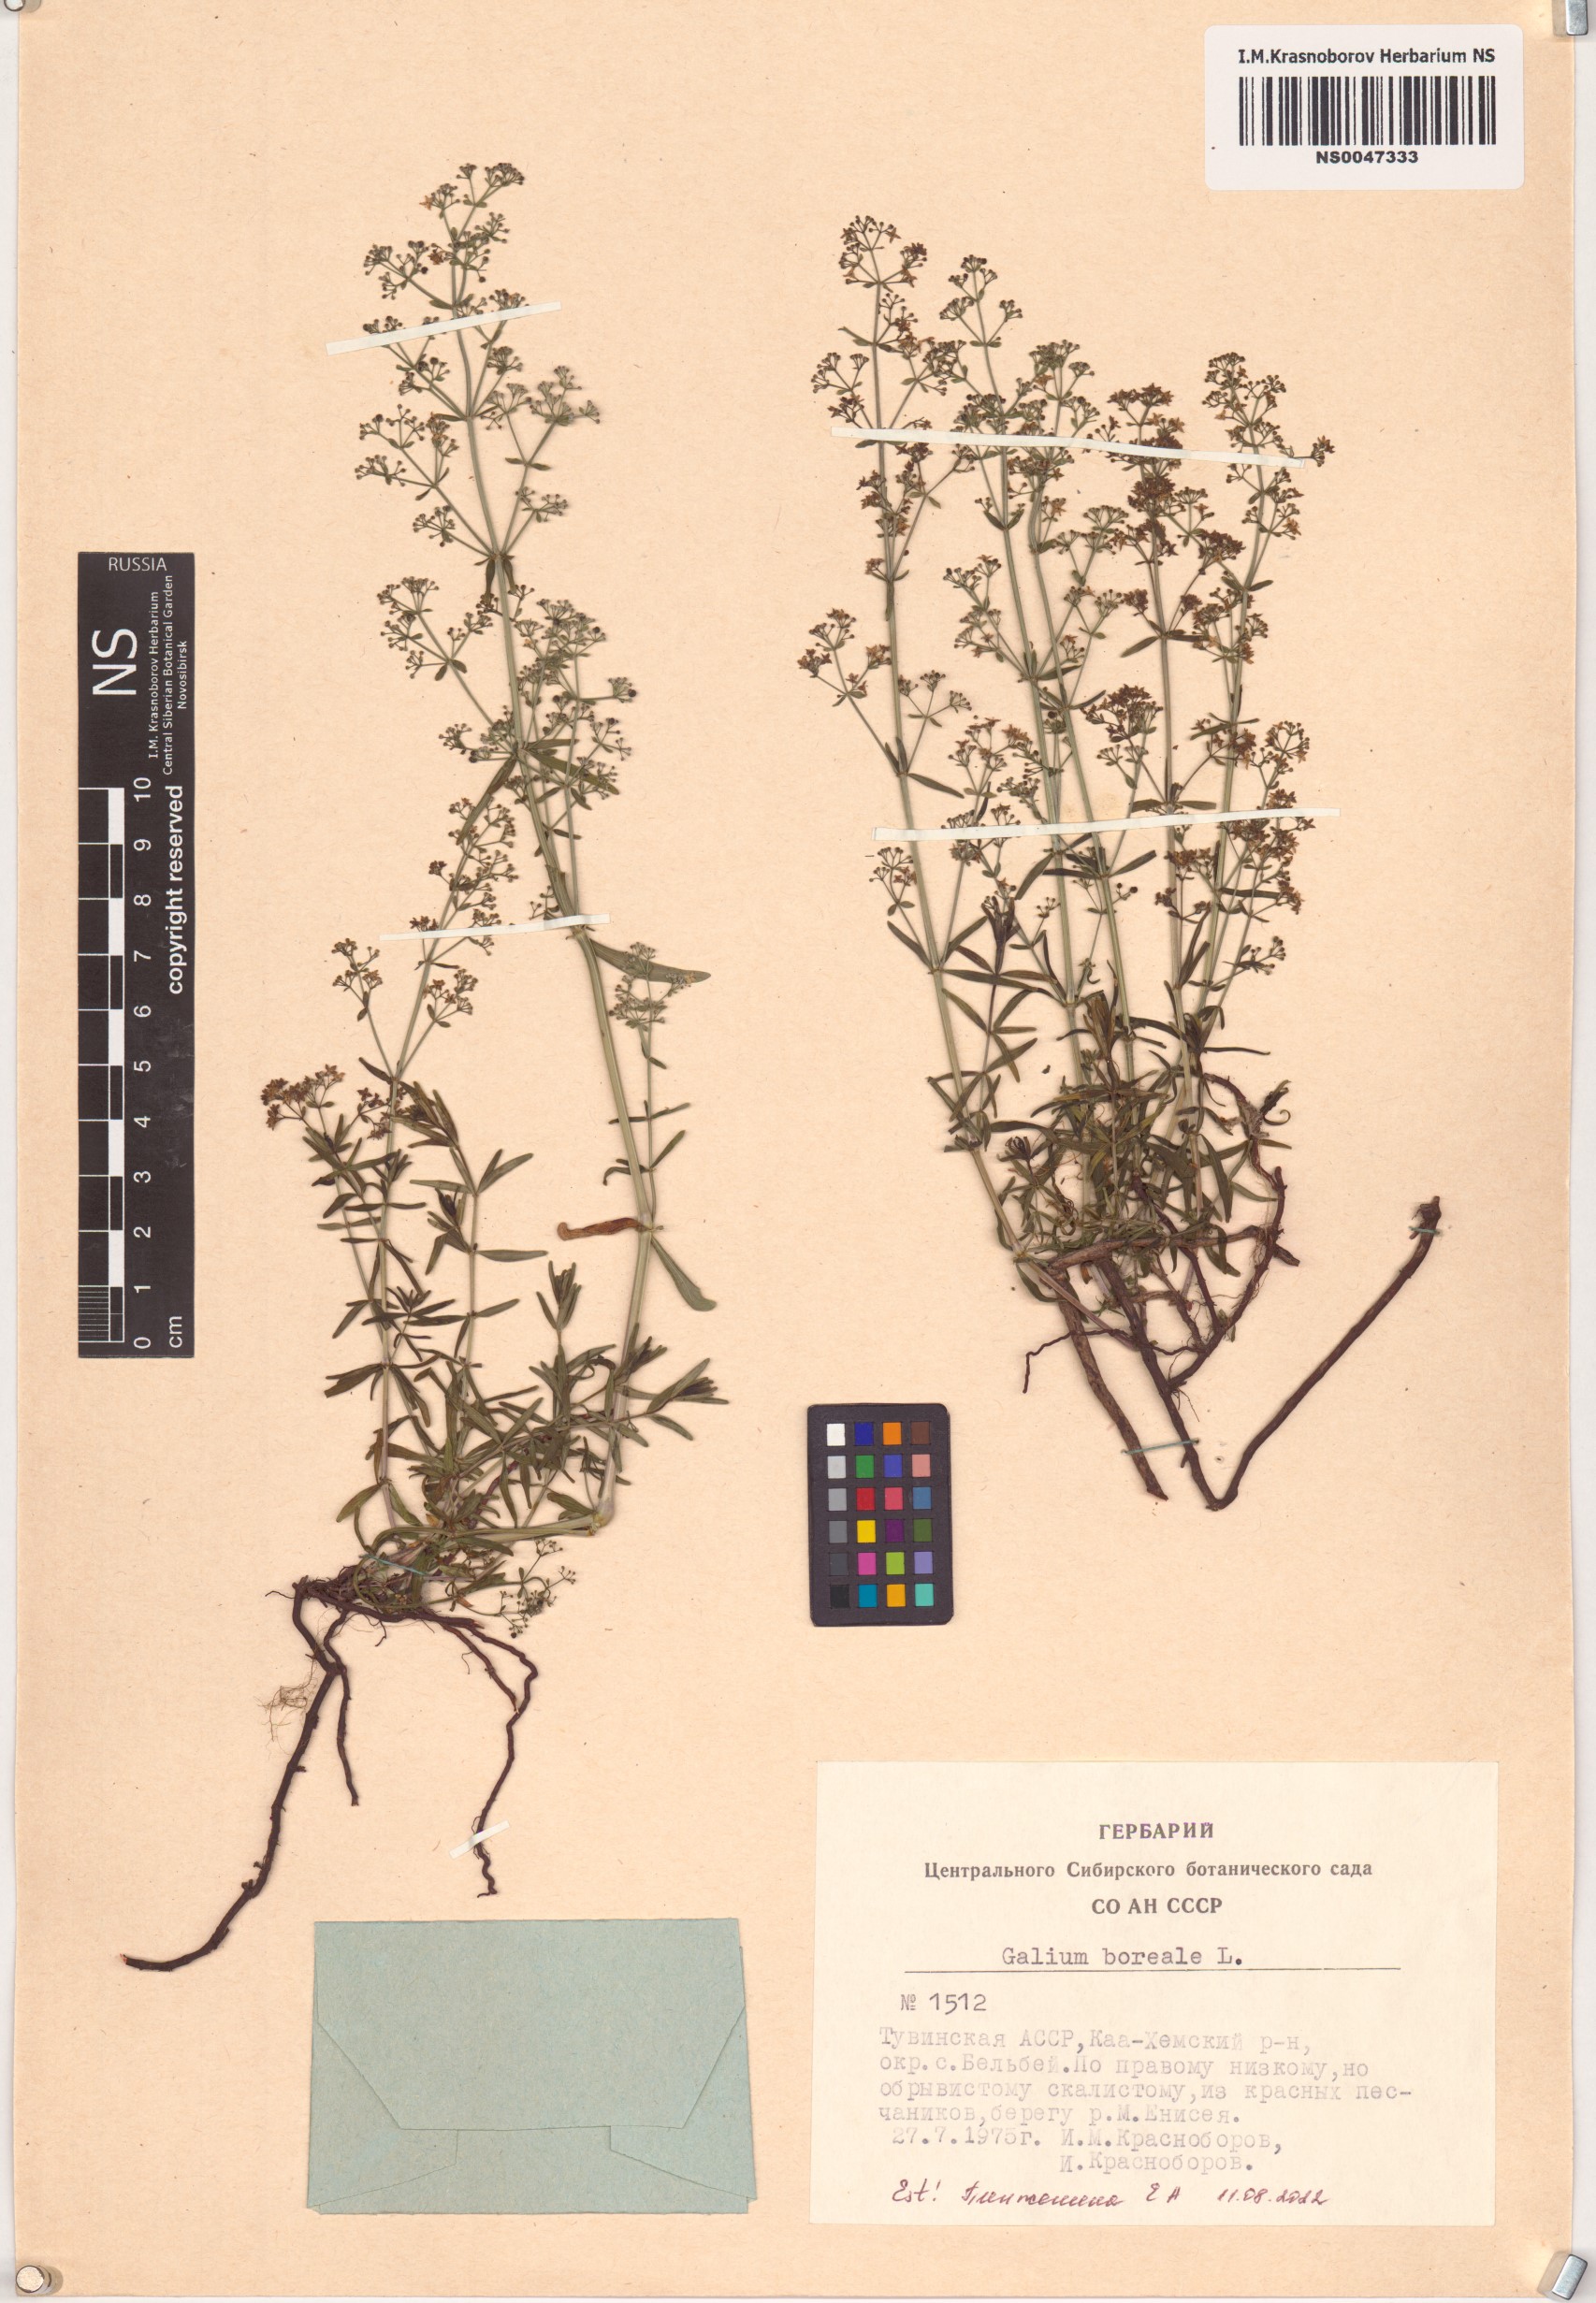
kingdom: Plantae
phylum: Tracheophyta
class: Magnoliopsida
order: Gentianales
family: Rubiaceae
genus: Galium
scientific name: Galium boreale
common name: Northern bedstraw
